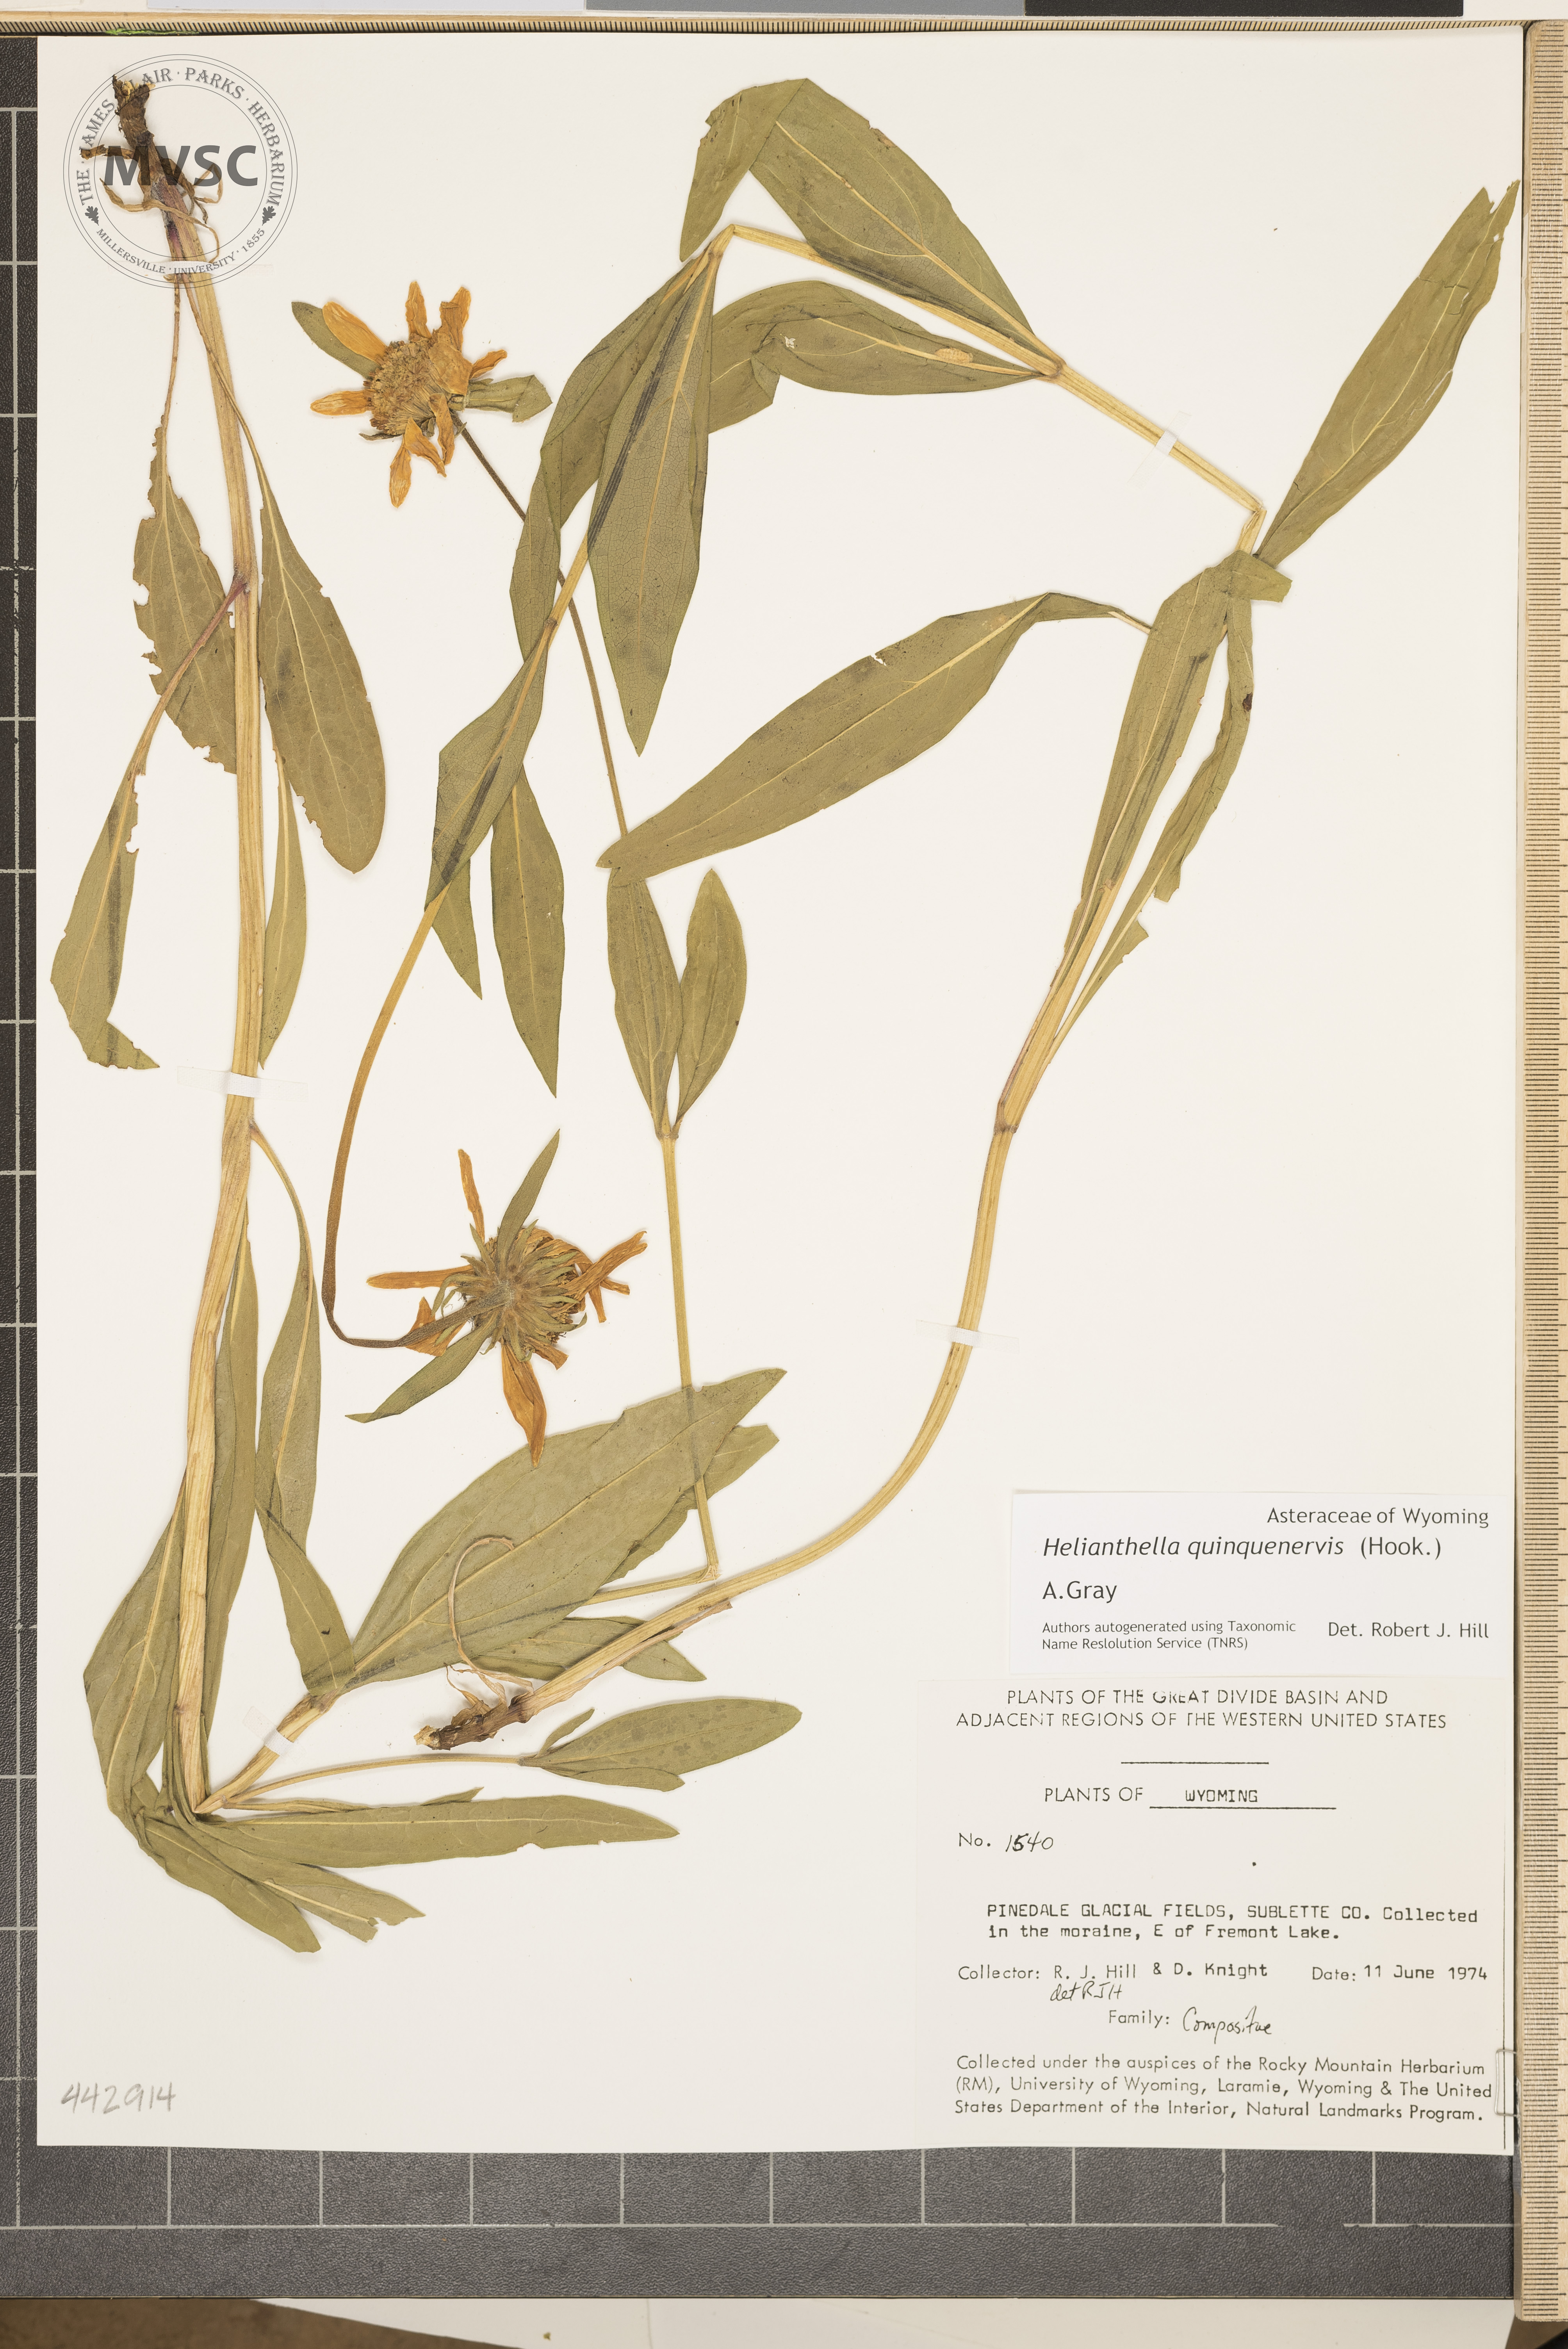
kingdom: Plantae
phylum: Tracheophyta
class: Magnoliopsida
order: Asterales
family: Asteraceae
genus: Helianthella
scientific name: Helianthella quinquenervis
